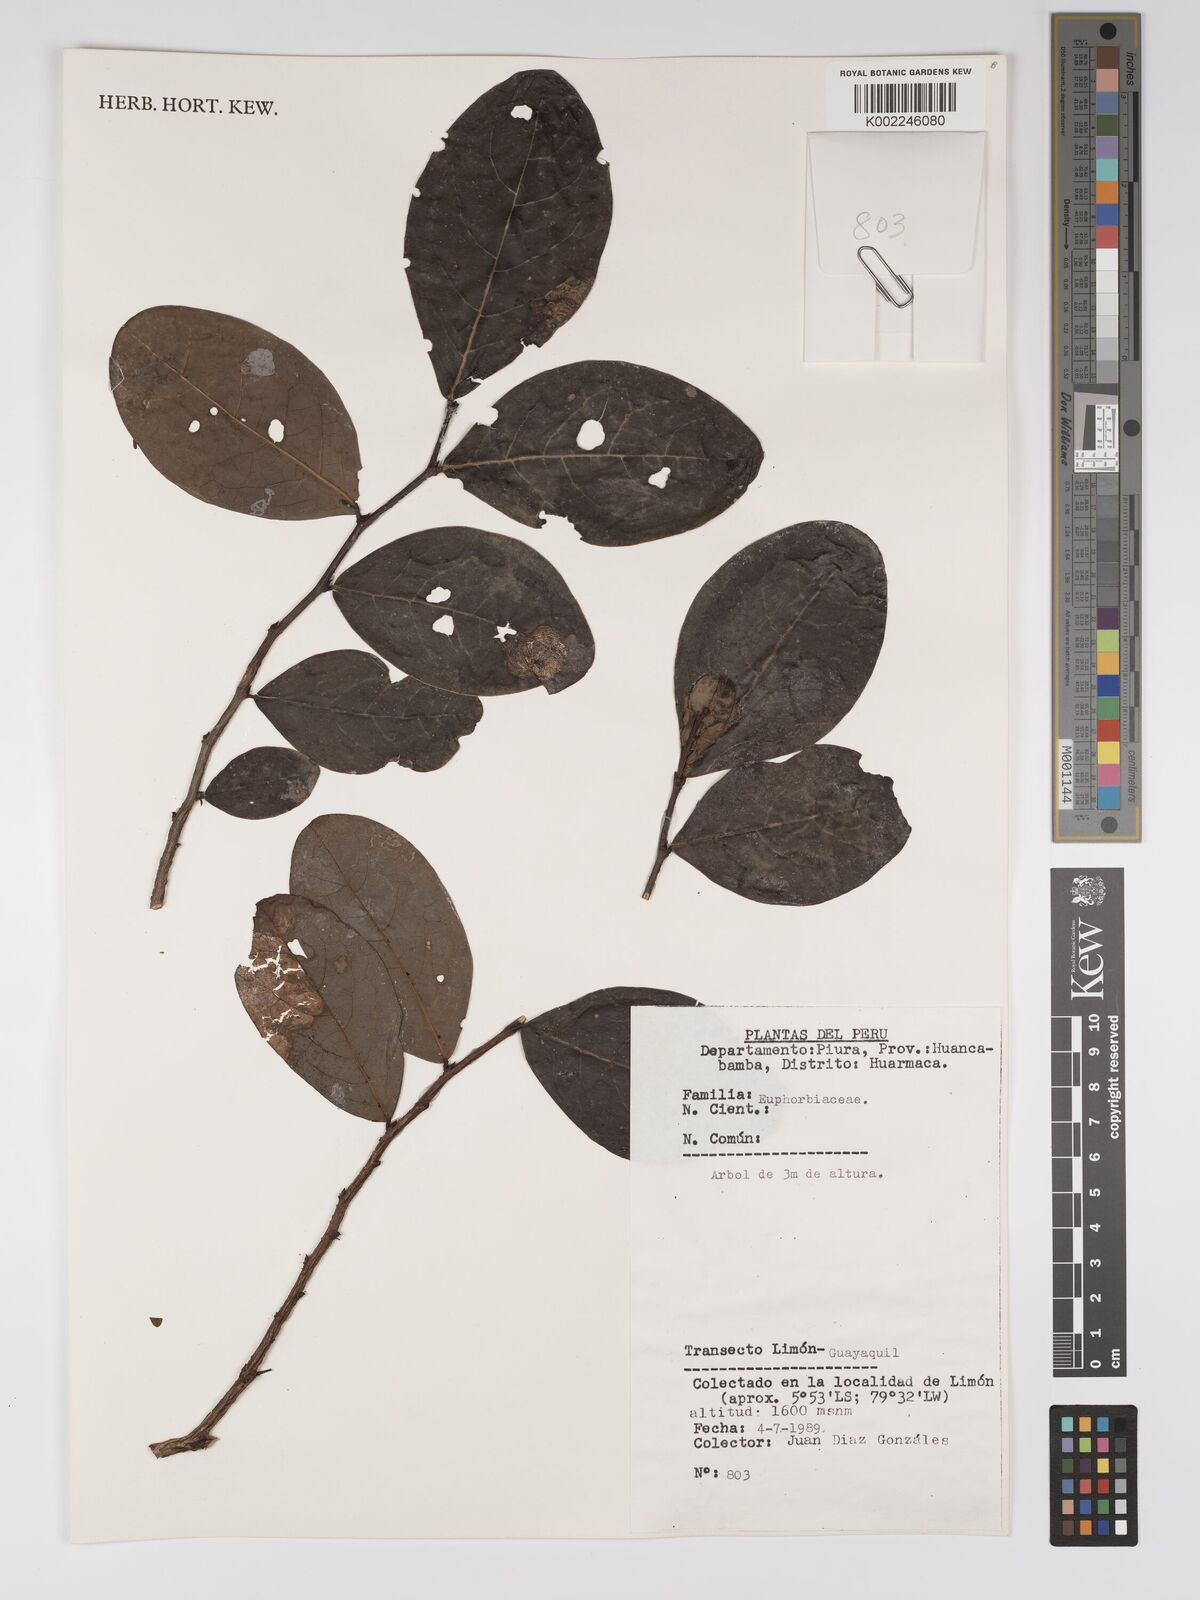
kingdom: Plantae
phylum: Tracheophyta
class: Magnoliopsida
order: Malpighiales
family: Euphorbiaceae
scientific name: Euphorbiaceae
